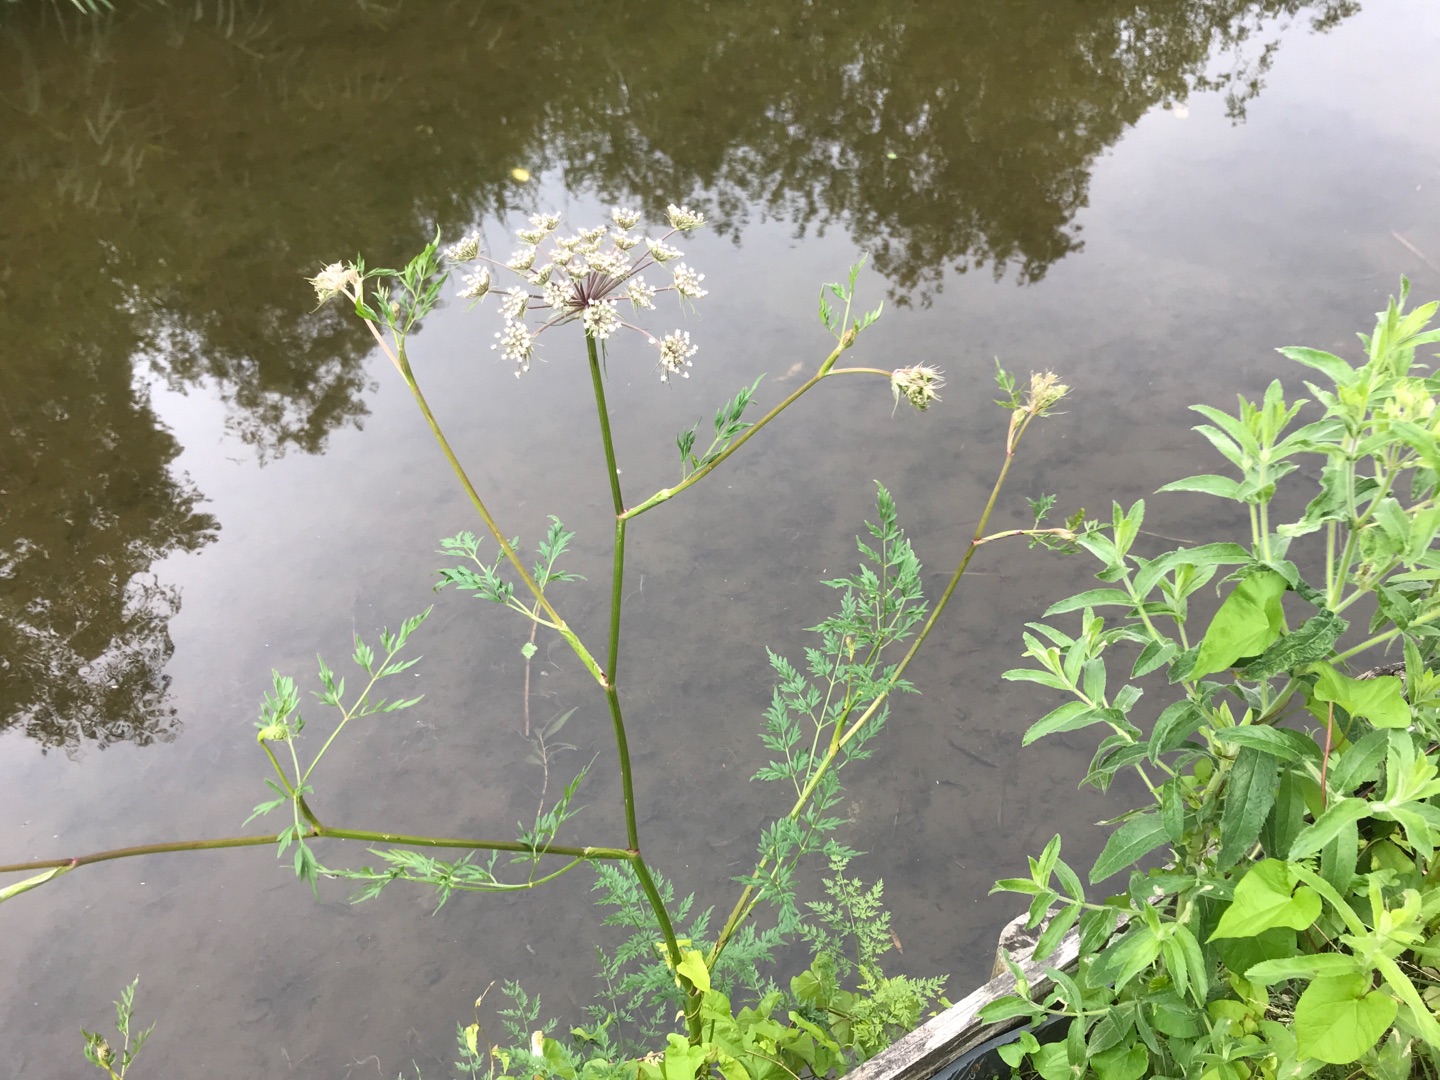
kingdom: Plantae
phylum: Tracheophyta
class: Magnoliopsida
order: Apiales
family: Apiaceae
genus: Thysselinum
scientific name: Thysselinum palustre
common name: Kær-svovlrod
